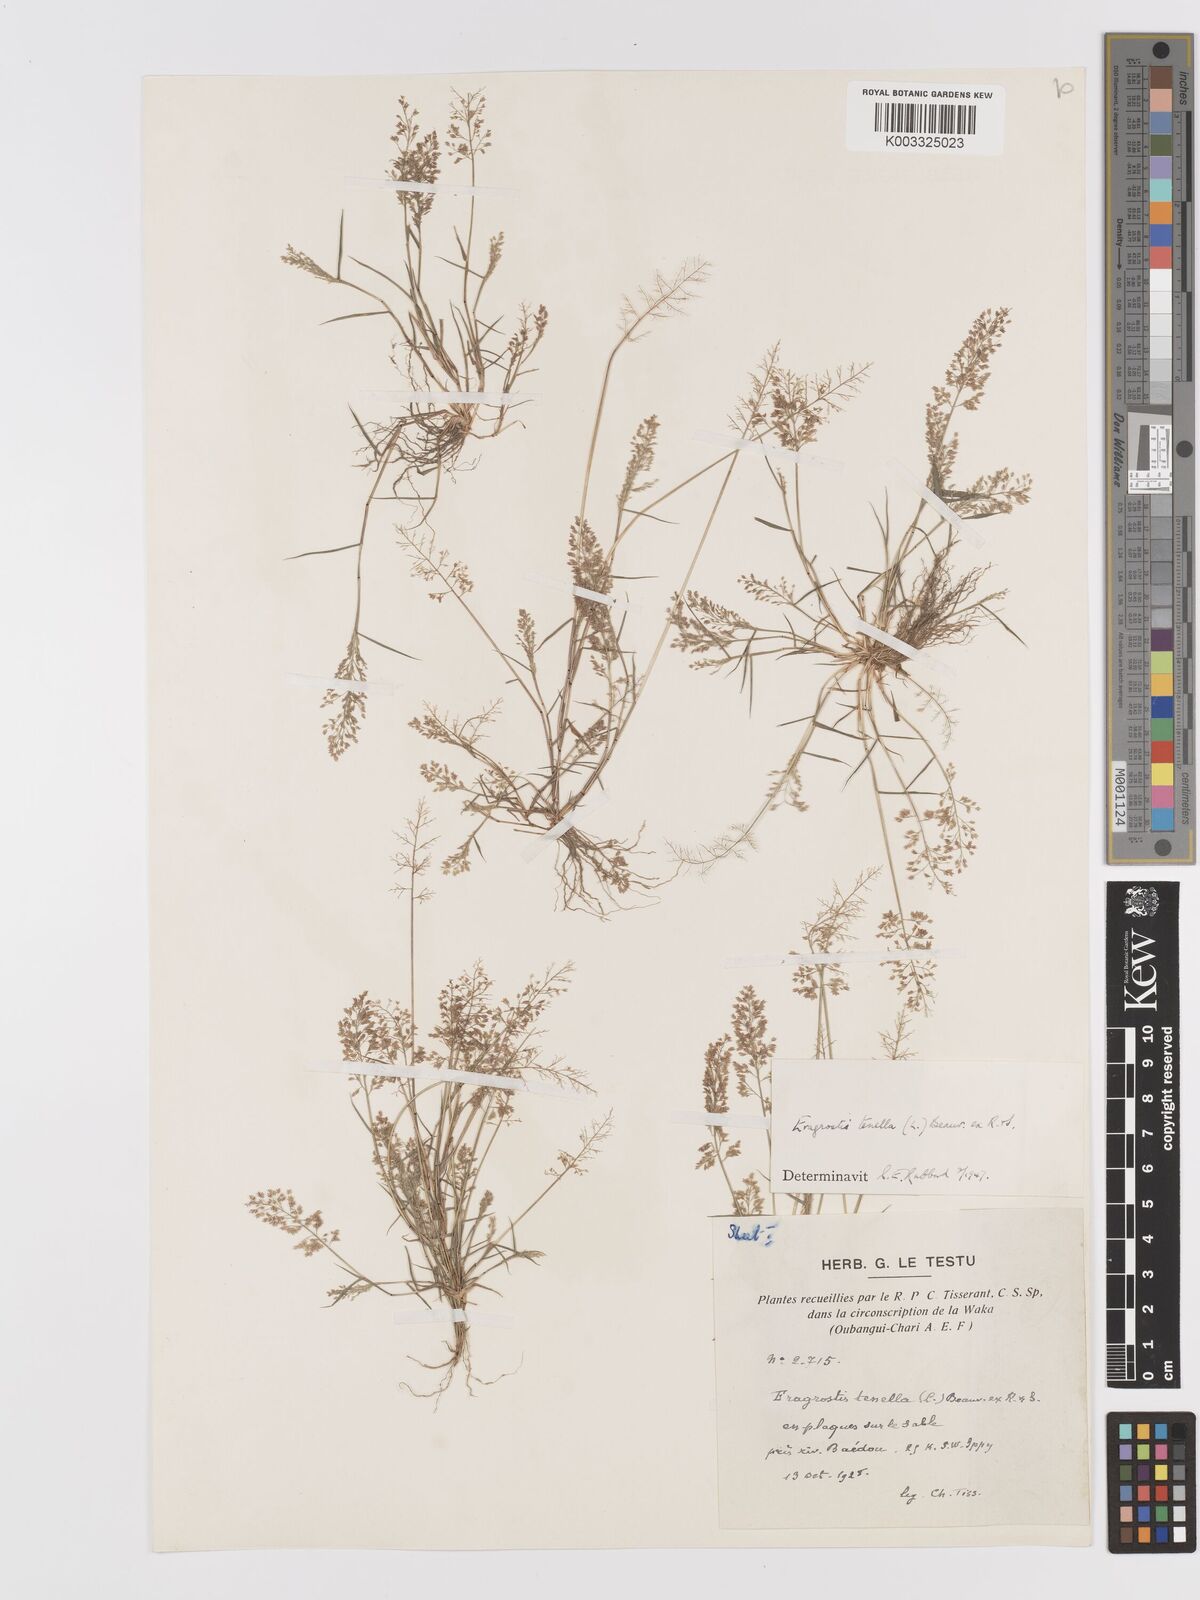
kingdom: Plantae
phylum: Tracheophyta
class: Liliopsida
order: Poales
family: Poaceae
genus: Eragrostis
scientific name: Eragrostis tenella
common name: Japanese lovegrass
